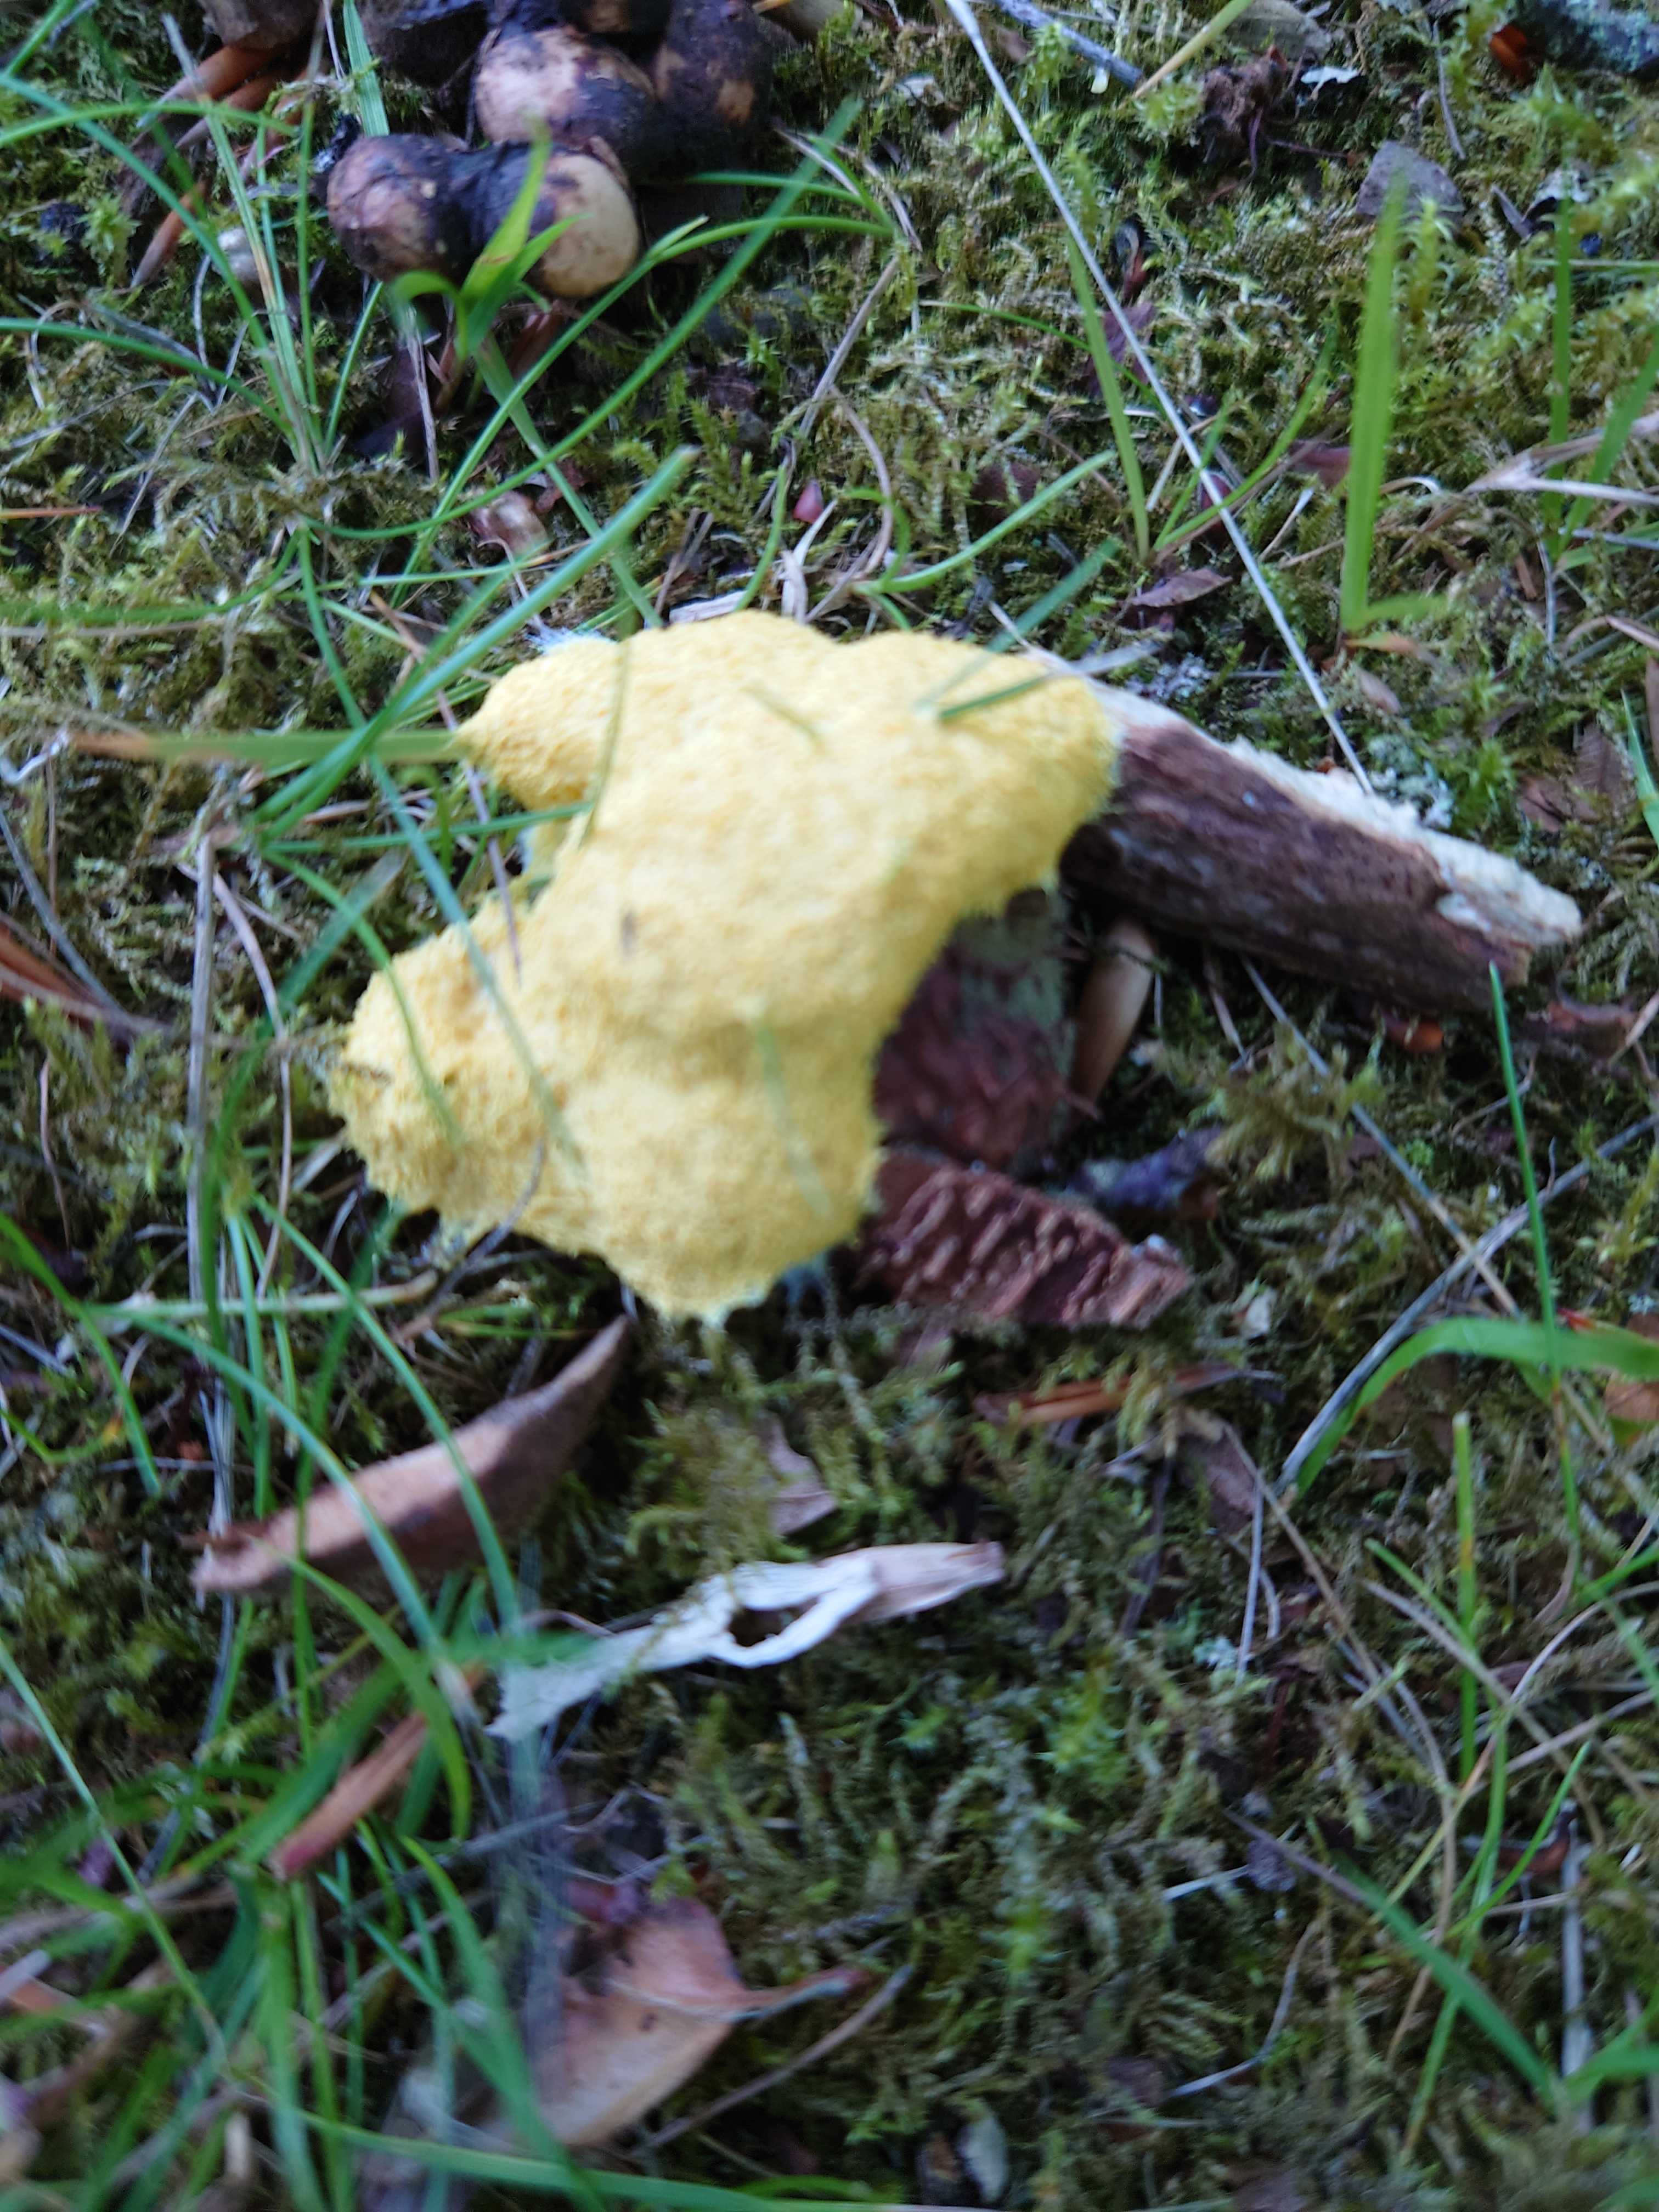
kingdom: Protozoa
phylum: Mycetozoa
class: Myxomycetes
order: Physarales
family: Physaraceae
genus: Fuligo
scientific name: Fuligo septica
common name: gul troldsmør
